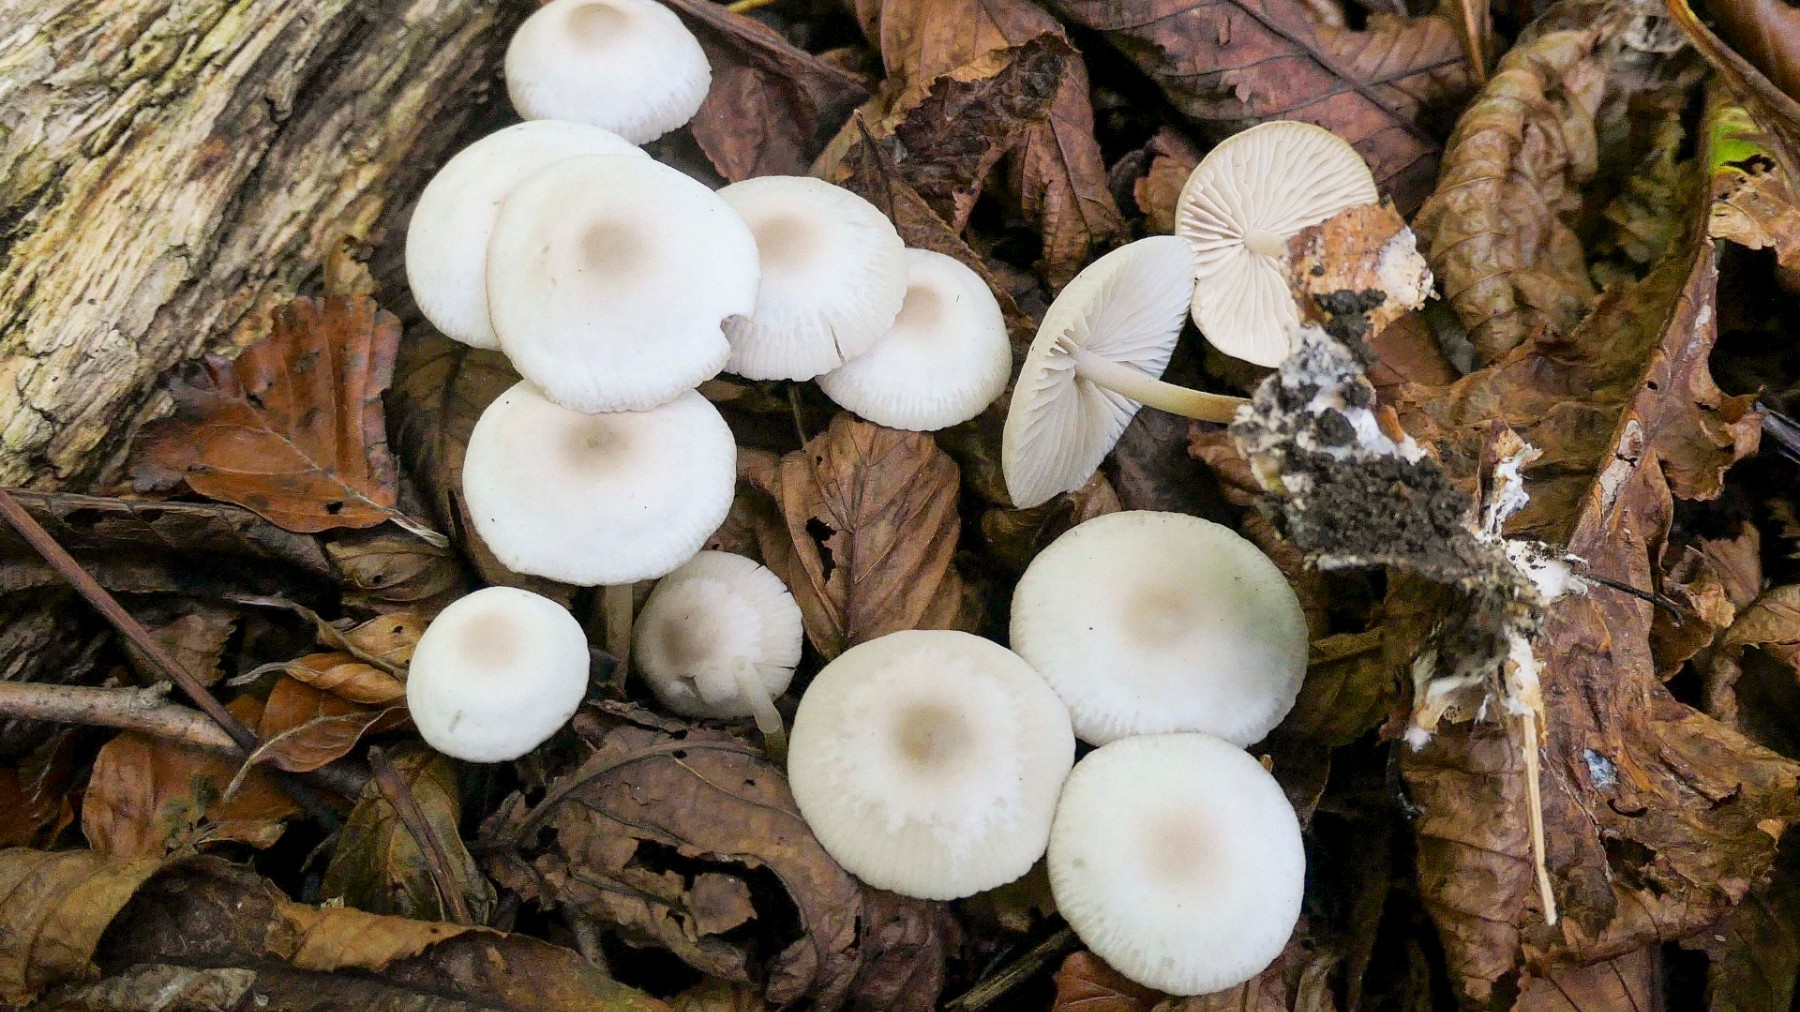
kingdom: Fungi
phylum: Basidiomycota
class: Agaricomycetes
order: Agaricales
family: Marasmiaceae
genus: Marasmius
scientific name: Marasmius wynneae
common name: hvælvet bruskhat
